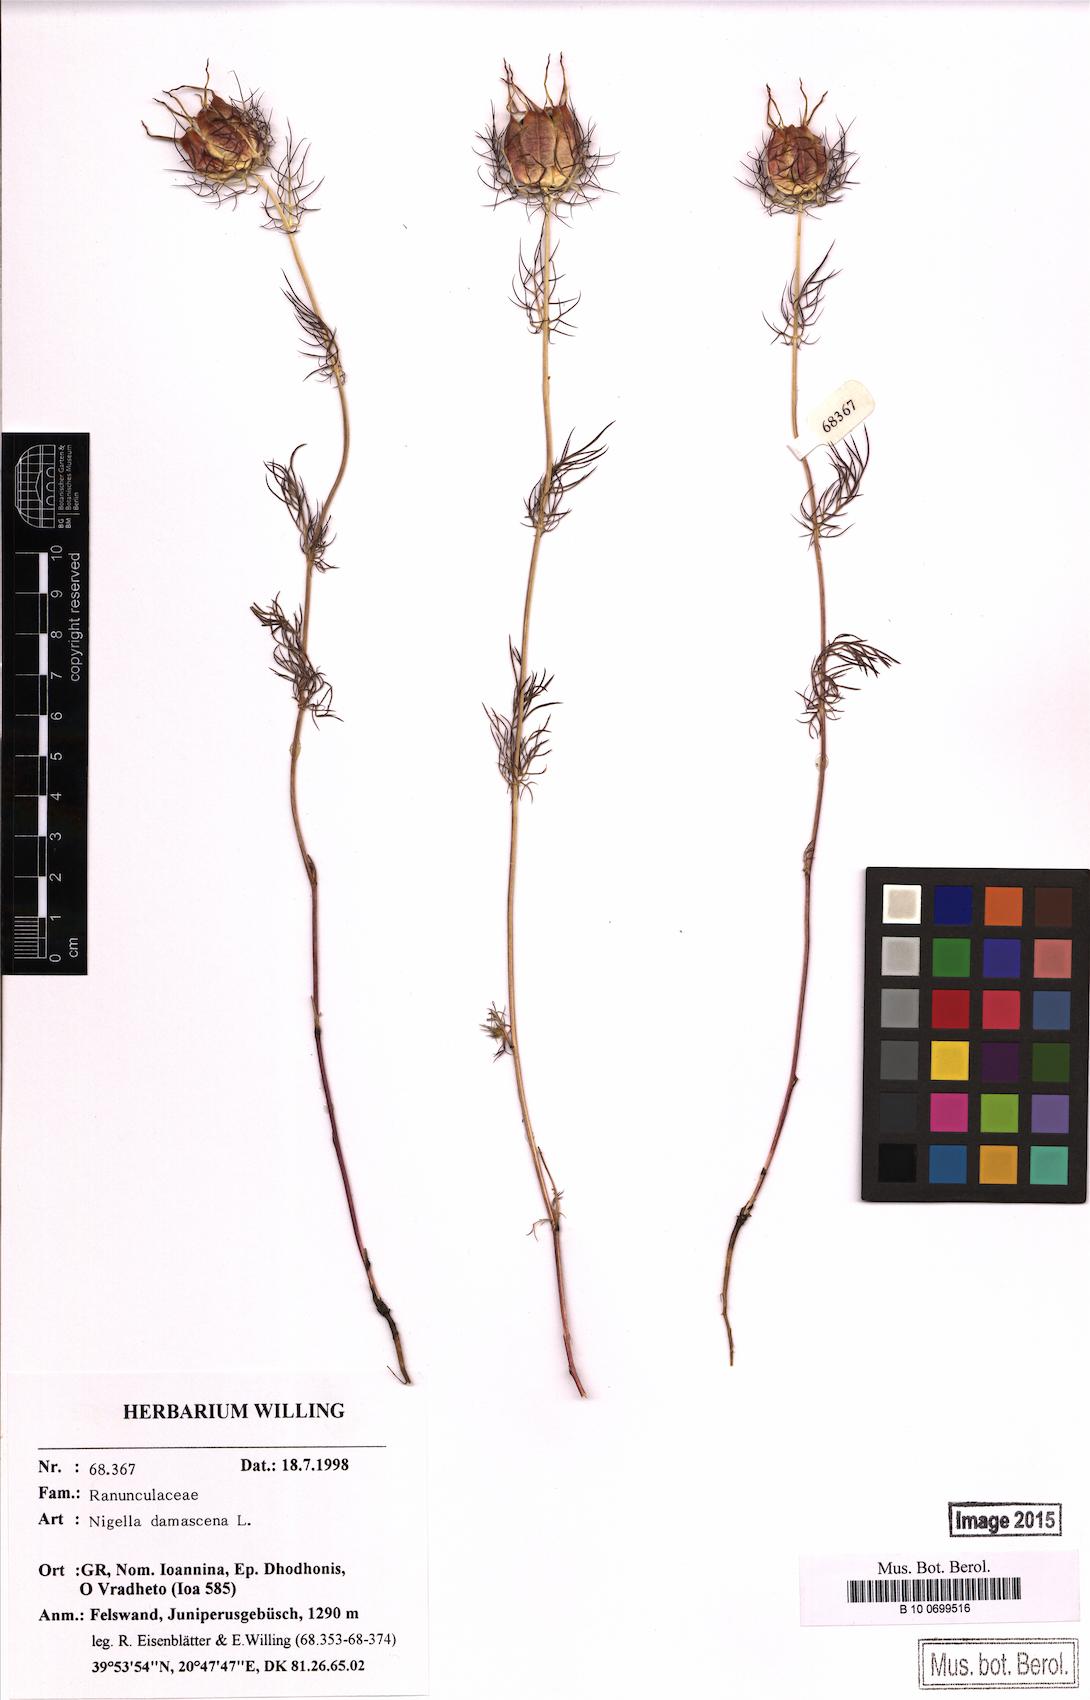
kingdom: Plantae
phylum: Tracheophyta
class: Magnoliopsida
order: Ranunculales
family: Ranunculaceae
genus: Nigella
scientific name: Nigella damascena
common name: Love-in-a-mist
